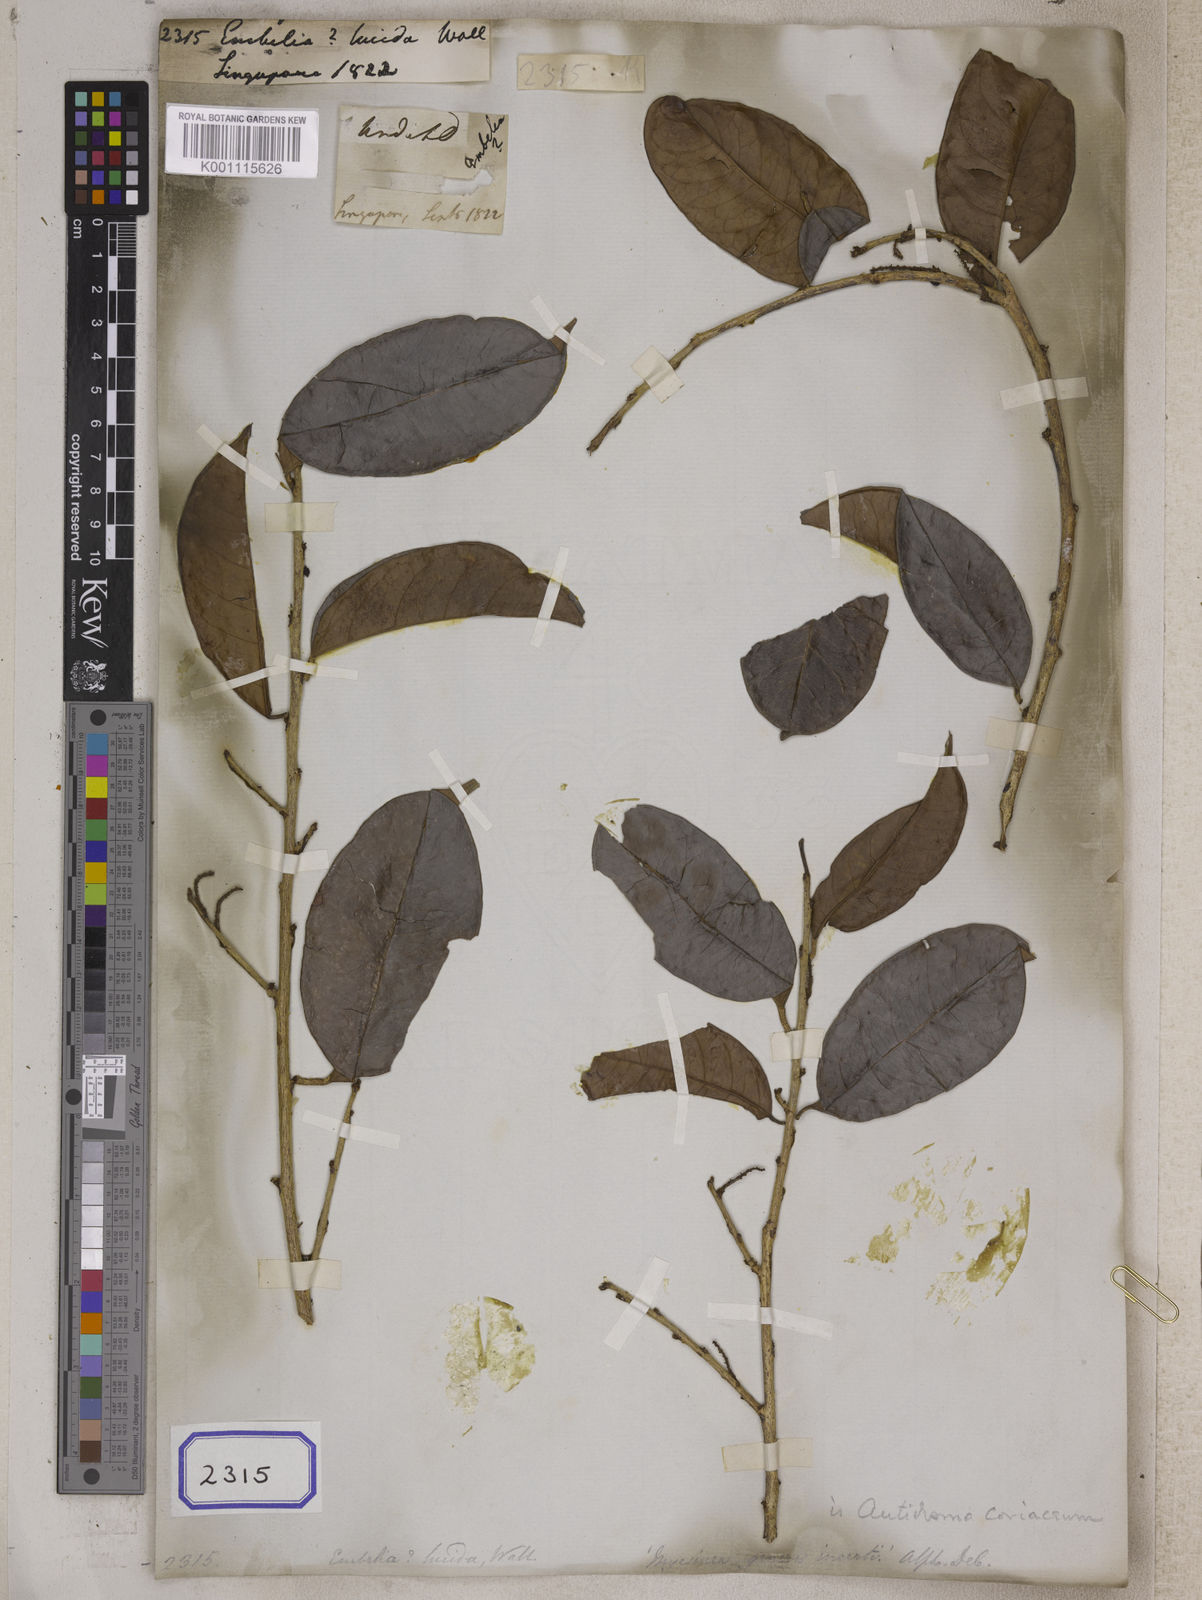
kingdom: Plantae
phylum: Tracheophyta
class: Magnoliopsida
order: Ericales
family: Primulaceae
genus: Embelia
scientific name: Embelia
